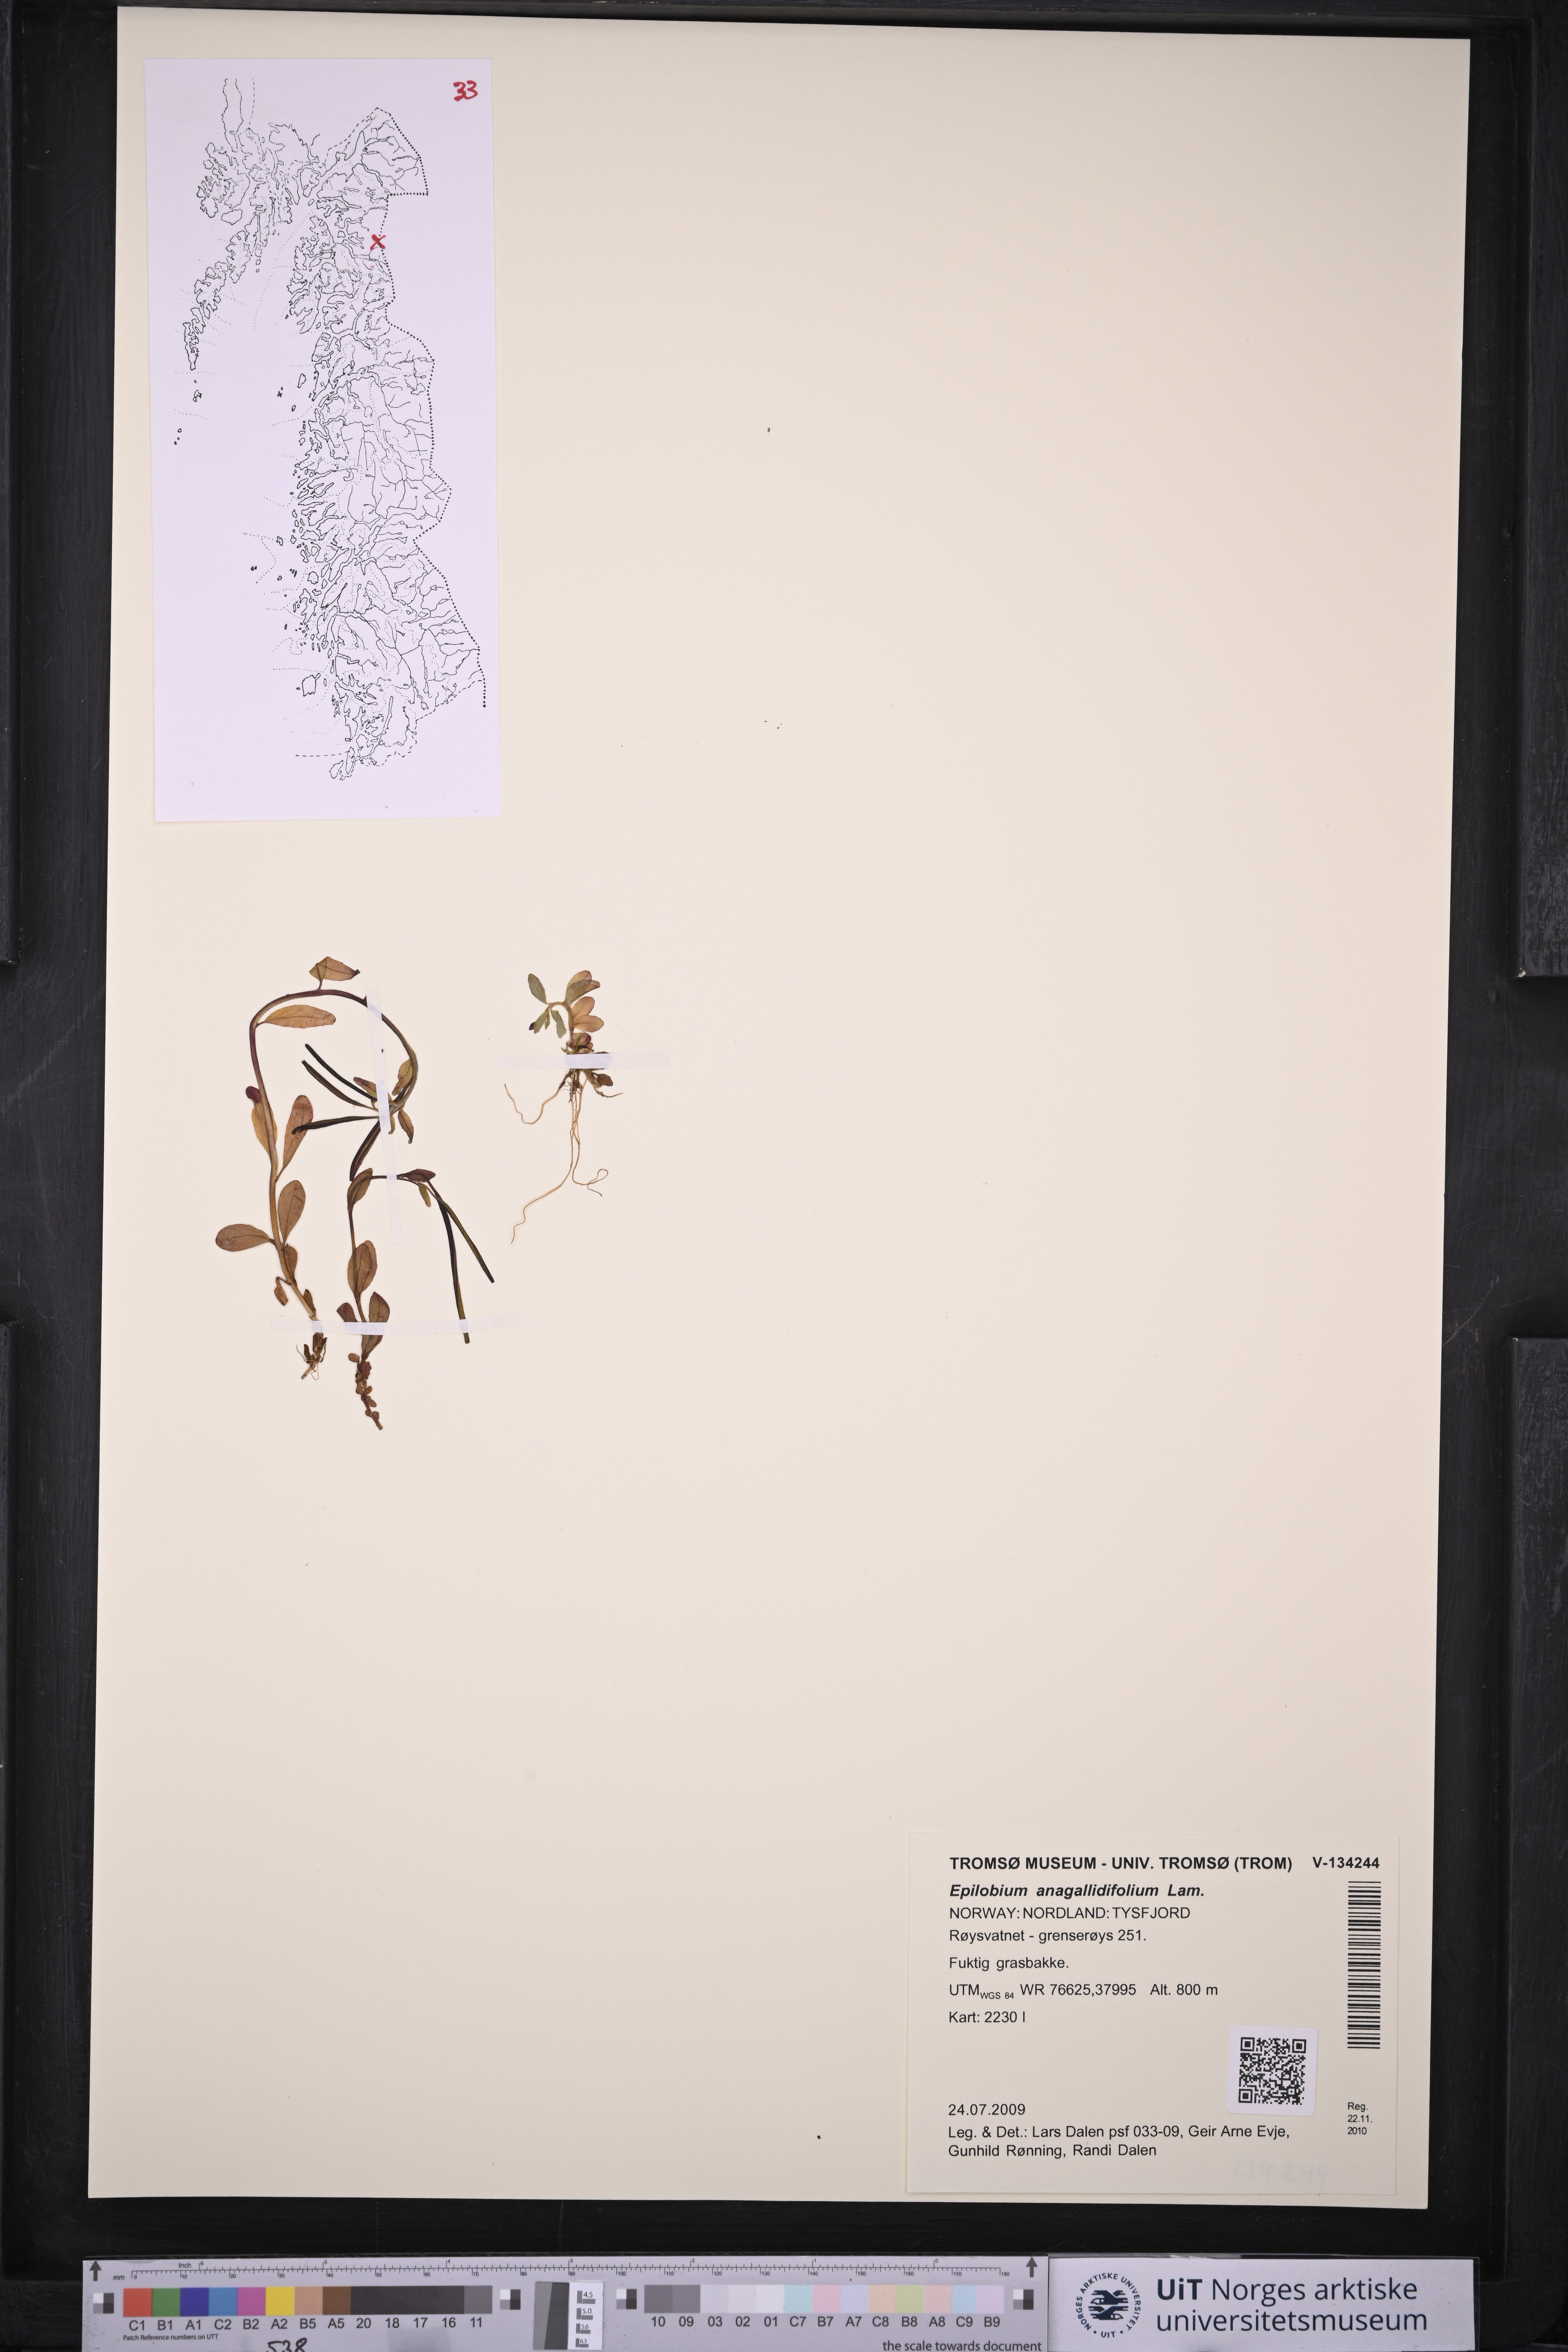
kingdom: Plantae
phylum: Tracheophyta
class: Magnoliopsida
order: Myrtales
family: Onagraceae
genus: Epilobium
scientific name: Epilobium anagallidifolium
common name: Alpine willowherb
